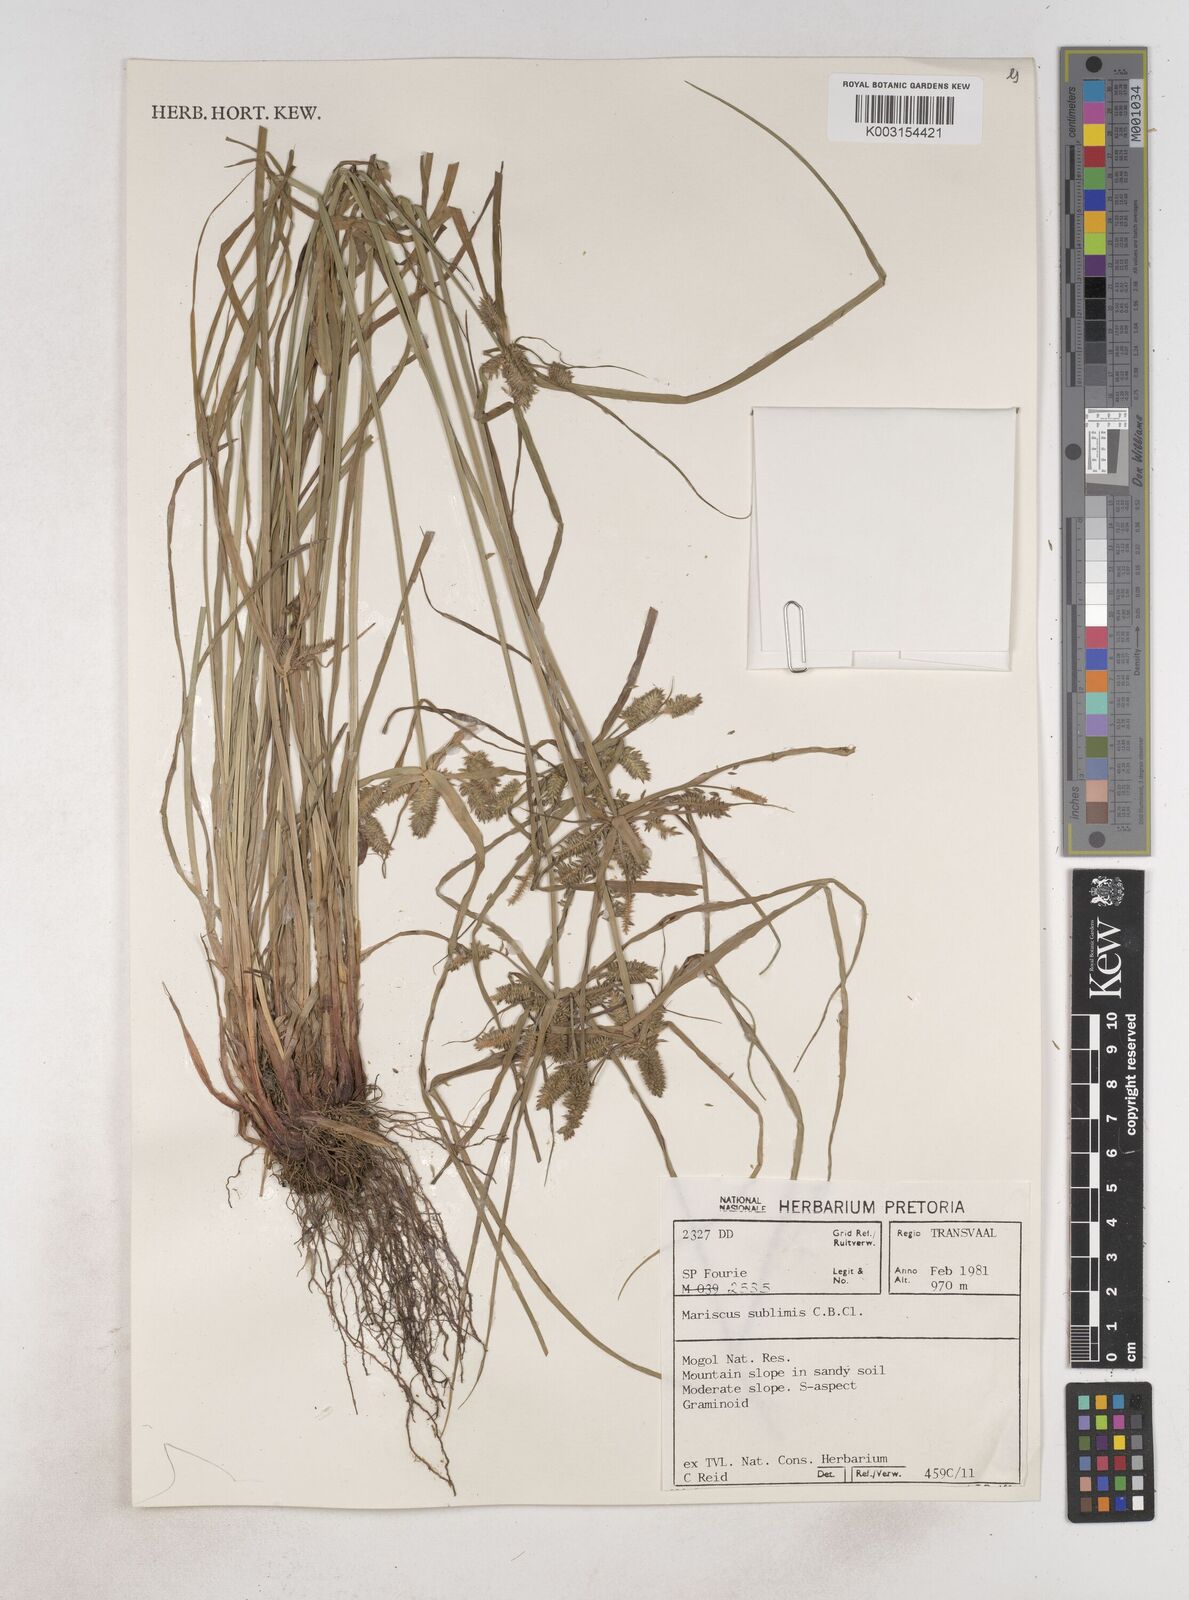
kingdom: Plantae
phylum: Tracheophyta
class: Liliopsida
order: Poales
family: Cyperaceae
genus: Cyperus
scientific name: Cyperus
